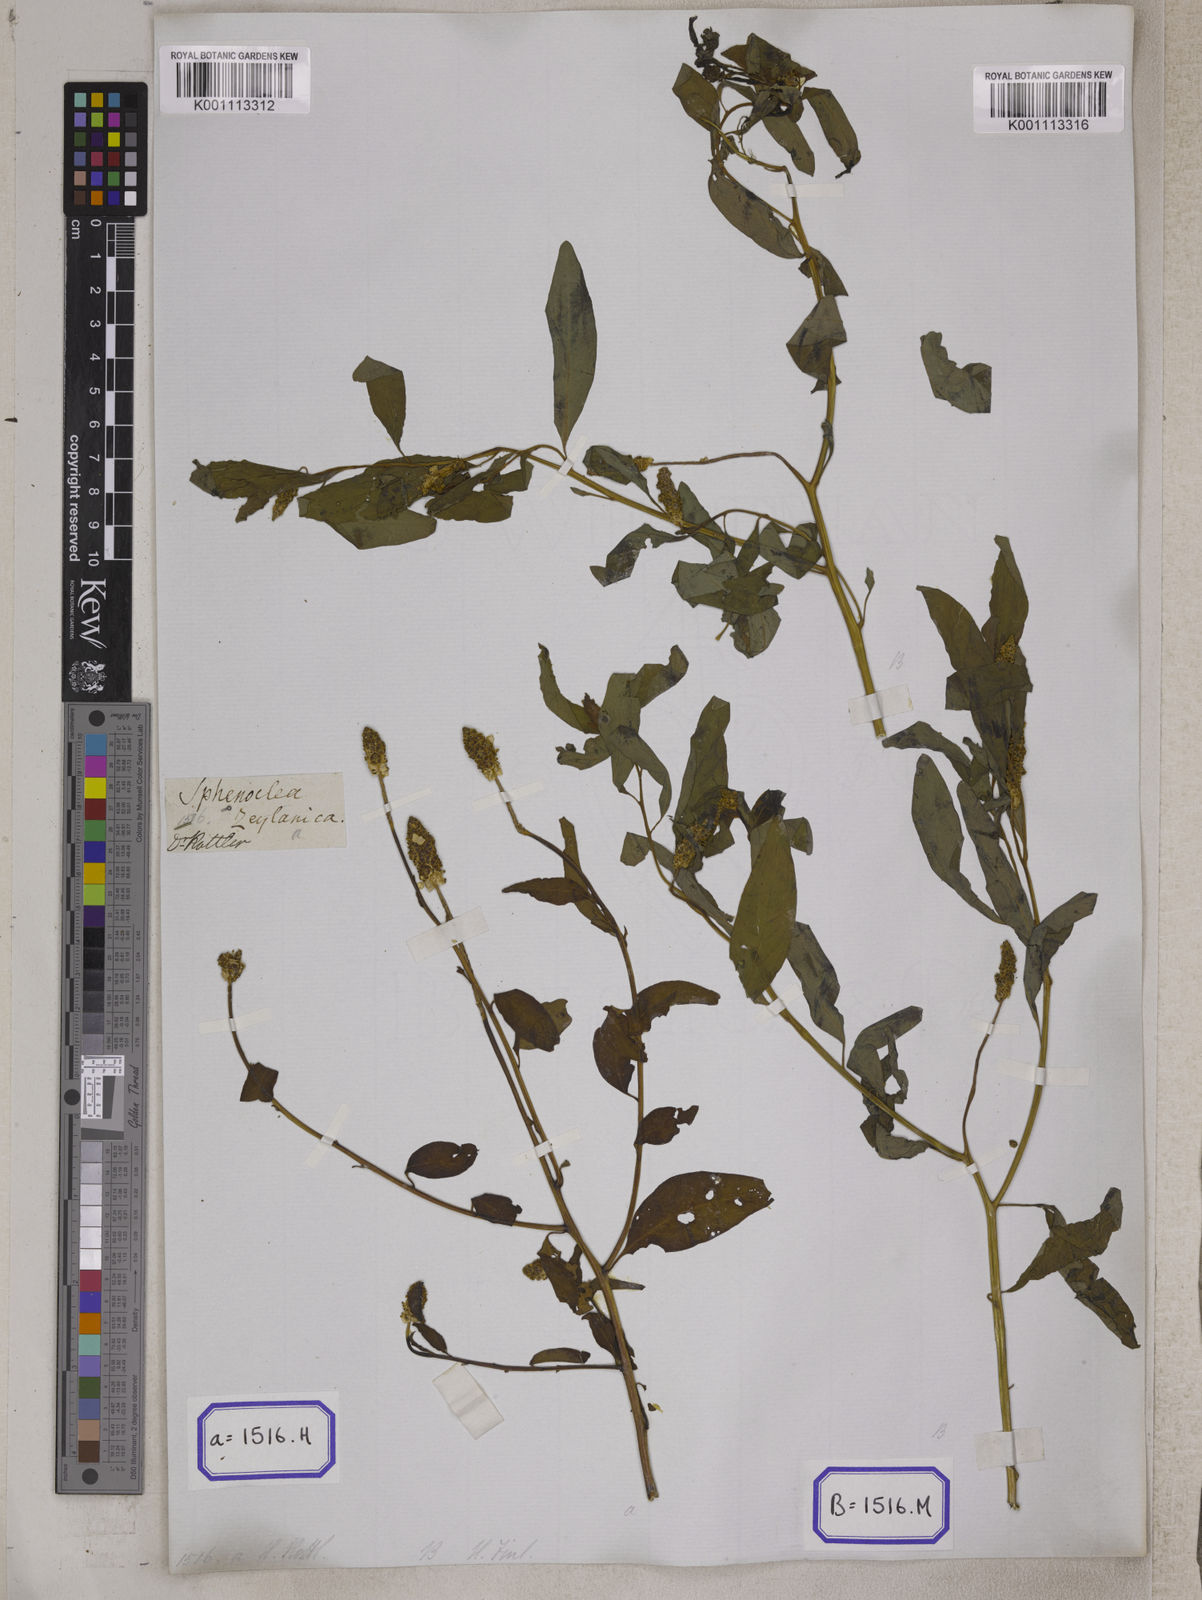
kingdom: Plantae
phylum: Tracheophyta
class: Magnoliopsida
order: Solanales
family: Sphenocleaceae
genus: Sphenoclea
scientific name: Sphenoclea
